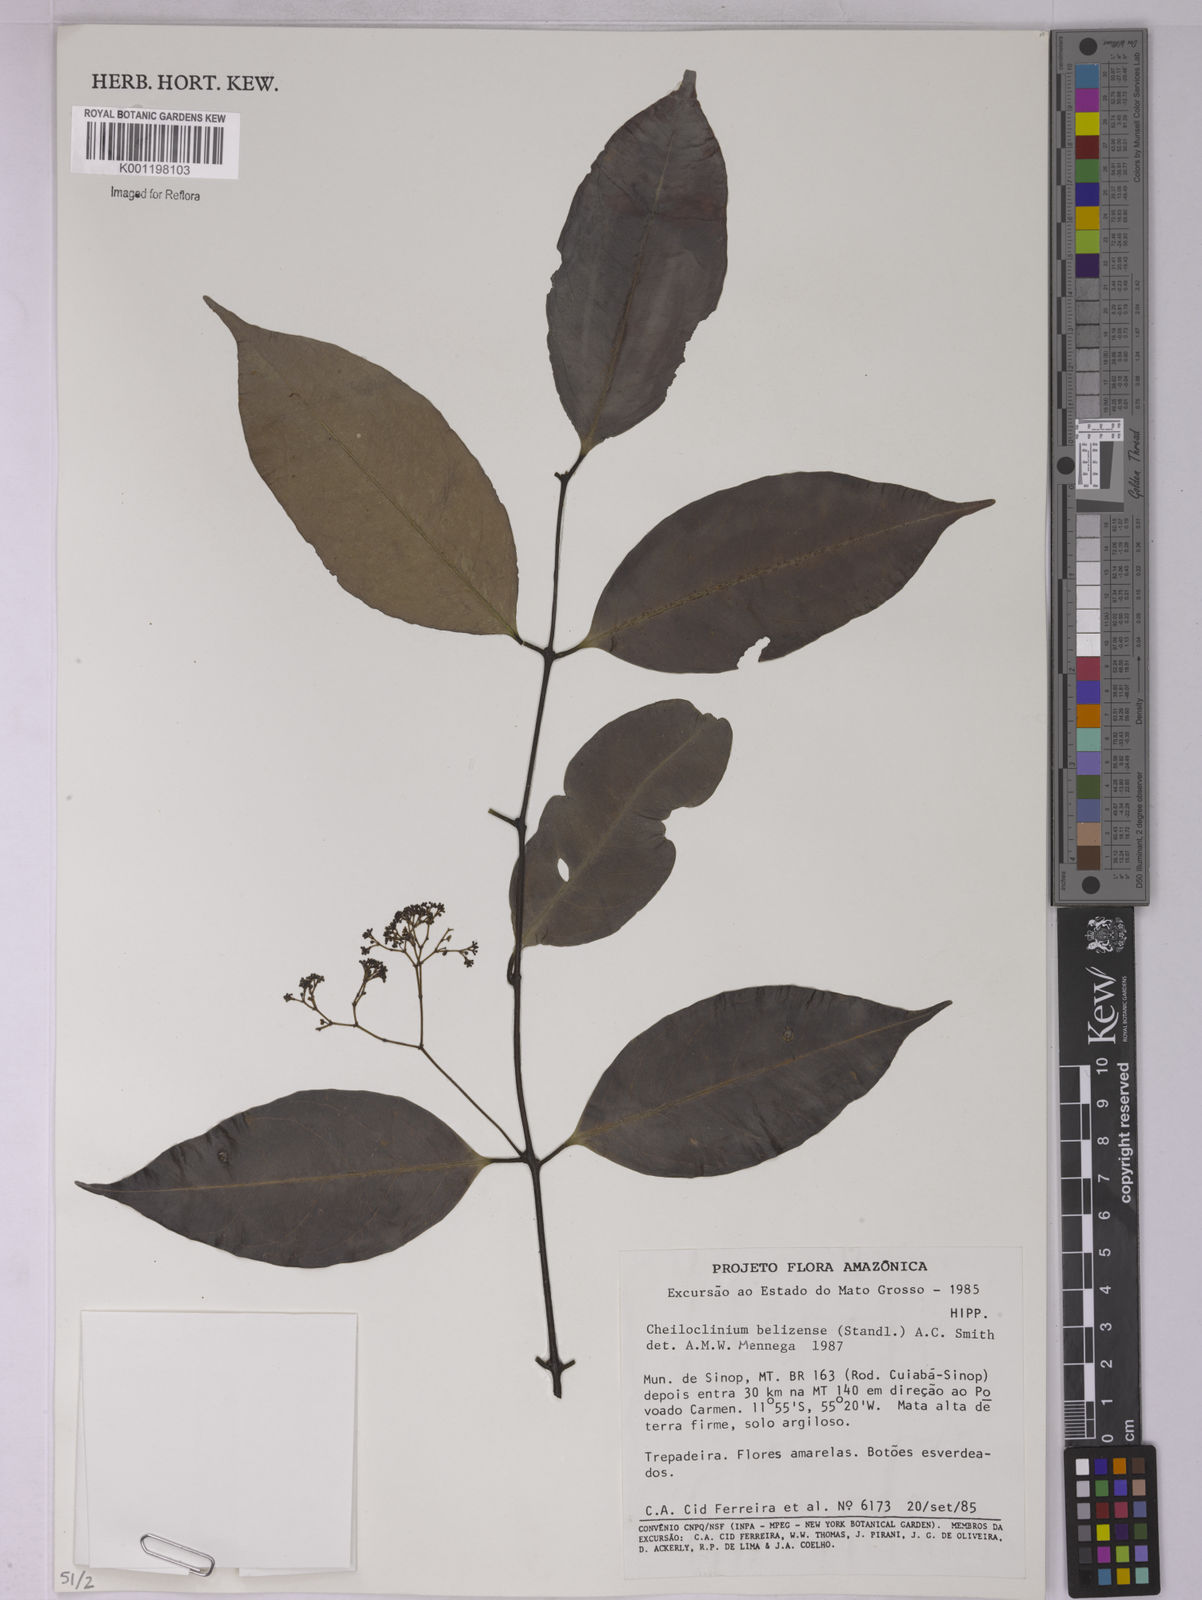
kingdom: Plantae
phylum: Tracheophyta
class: Magnoliopsida
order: Celastrales
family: Celastraceae
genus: Cheiloclinium
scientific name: Cheiloclinium belizense
